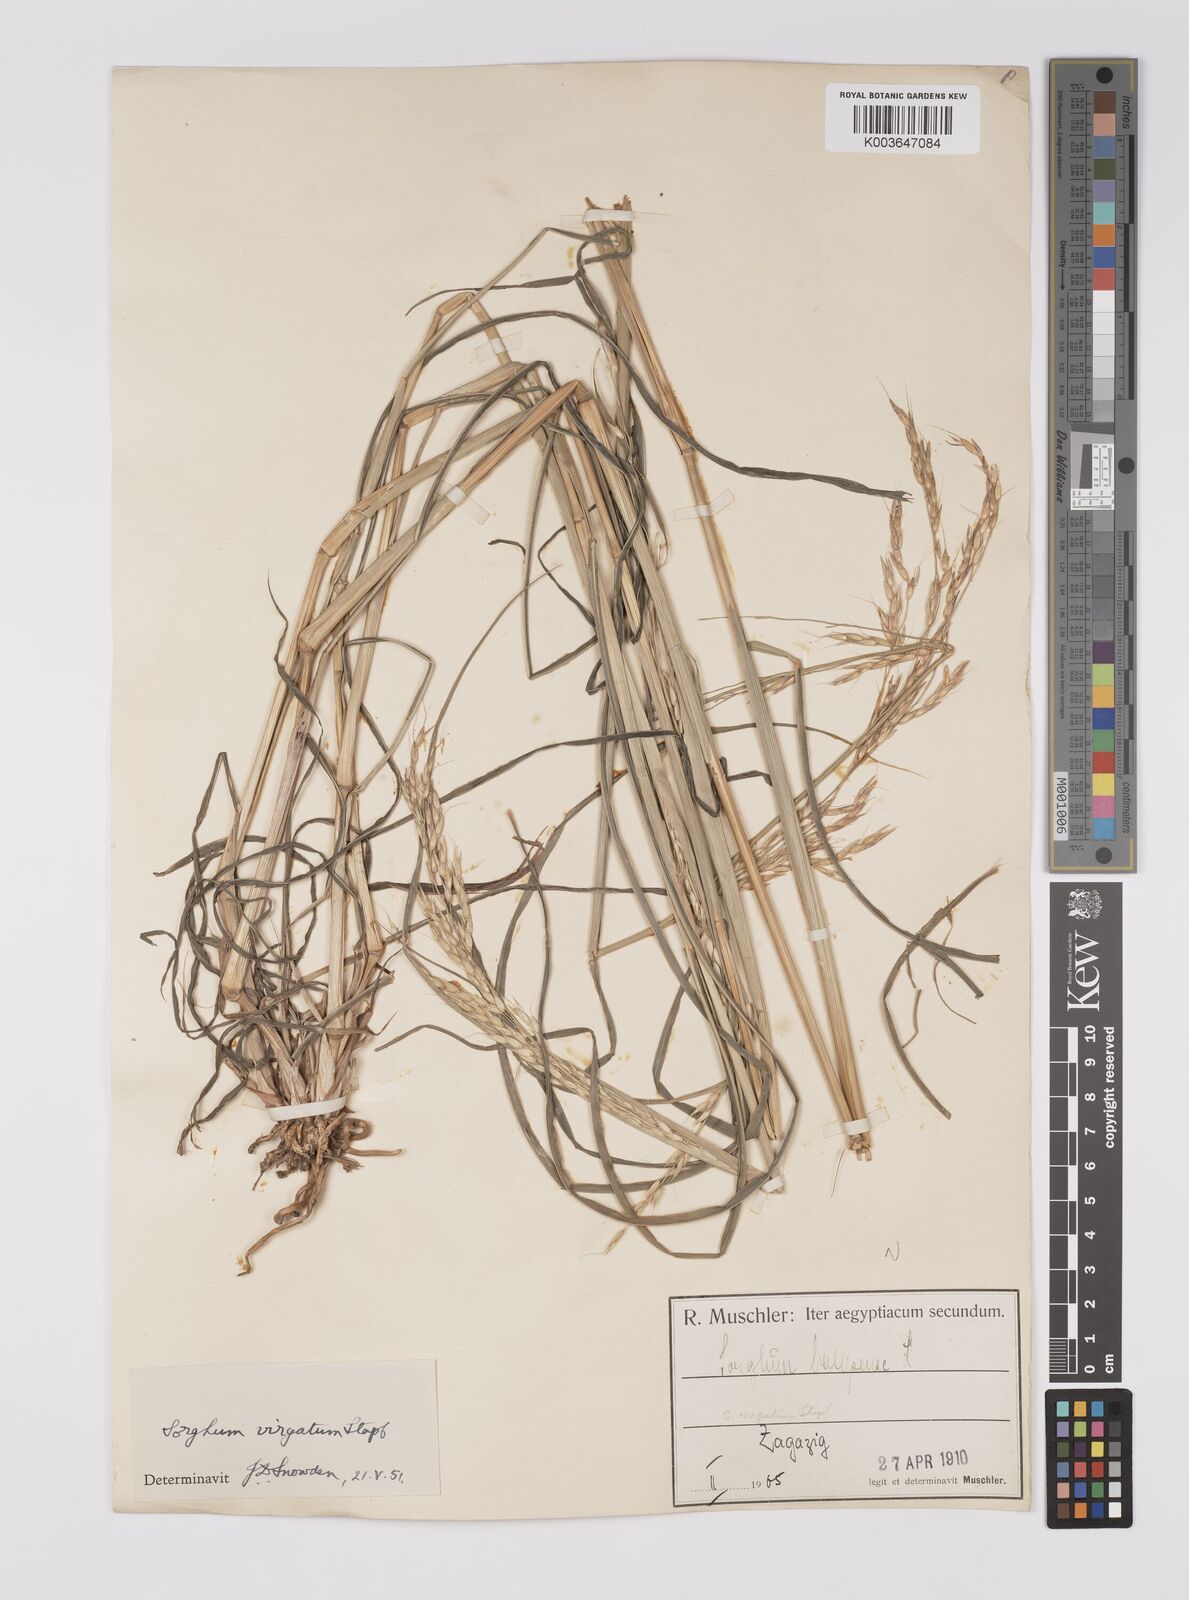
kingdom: Plantae
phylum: Tracheophyta
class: Liliopsida
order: Poales
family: Poaceae
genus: Sorghum
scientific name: Sorghum virgatum
